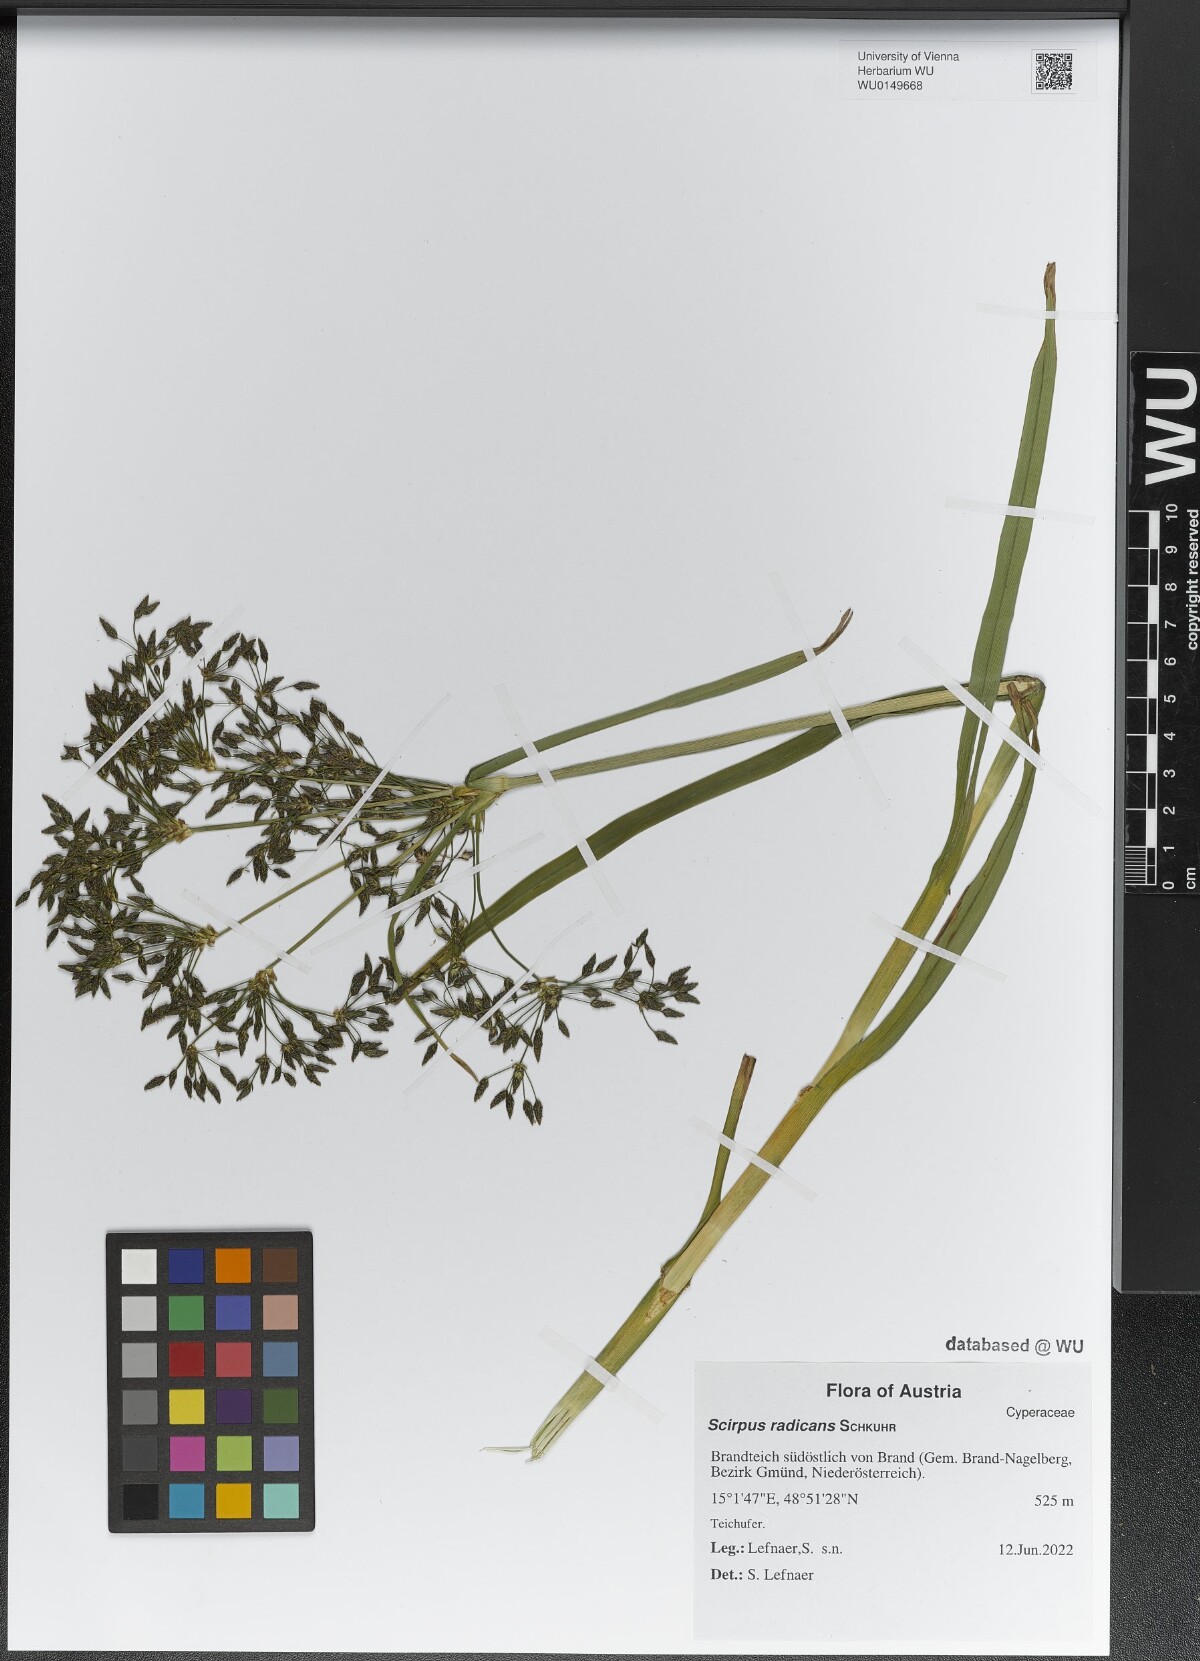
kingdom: Plantae
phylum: Tracheophyta
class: Liliopsida
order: Poales
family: Cyperaceae
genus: Scirpus
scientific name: Scirpus radicans
